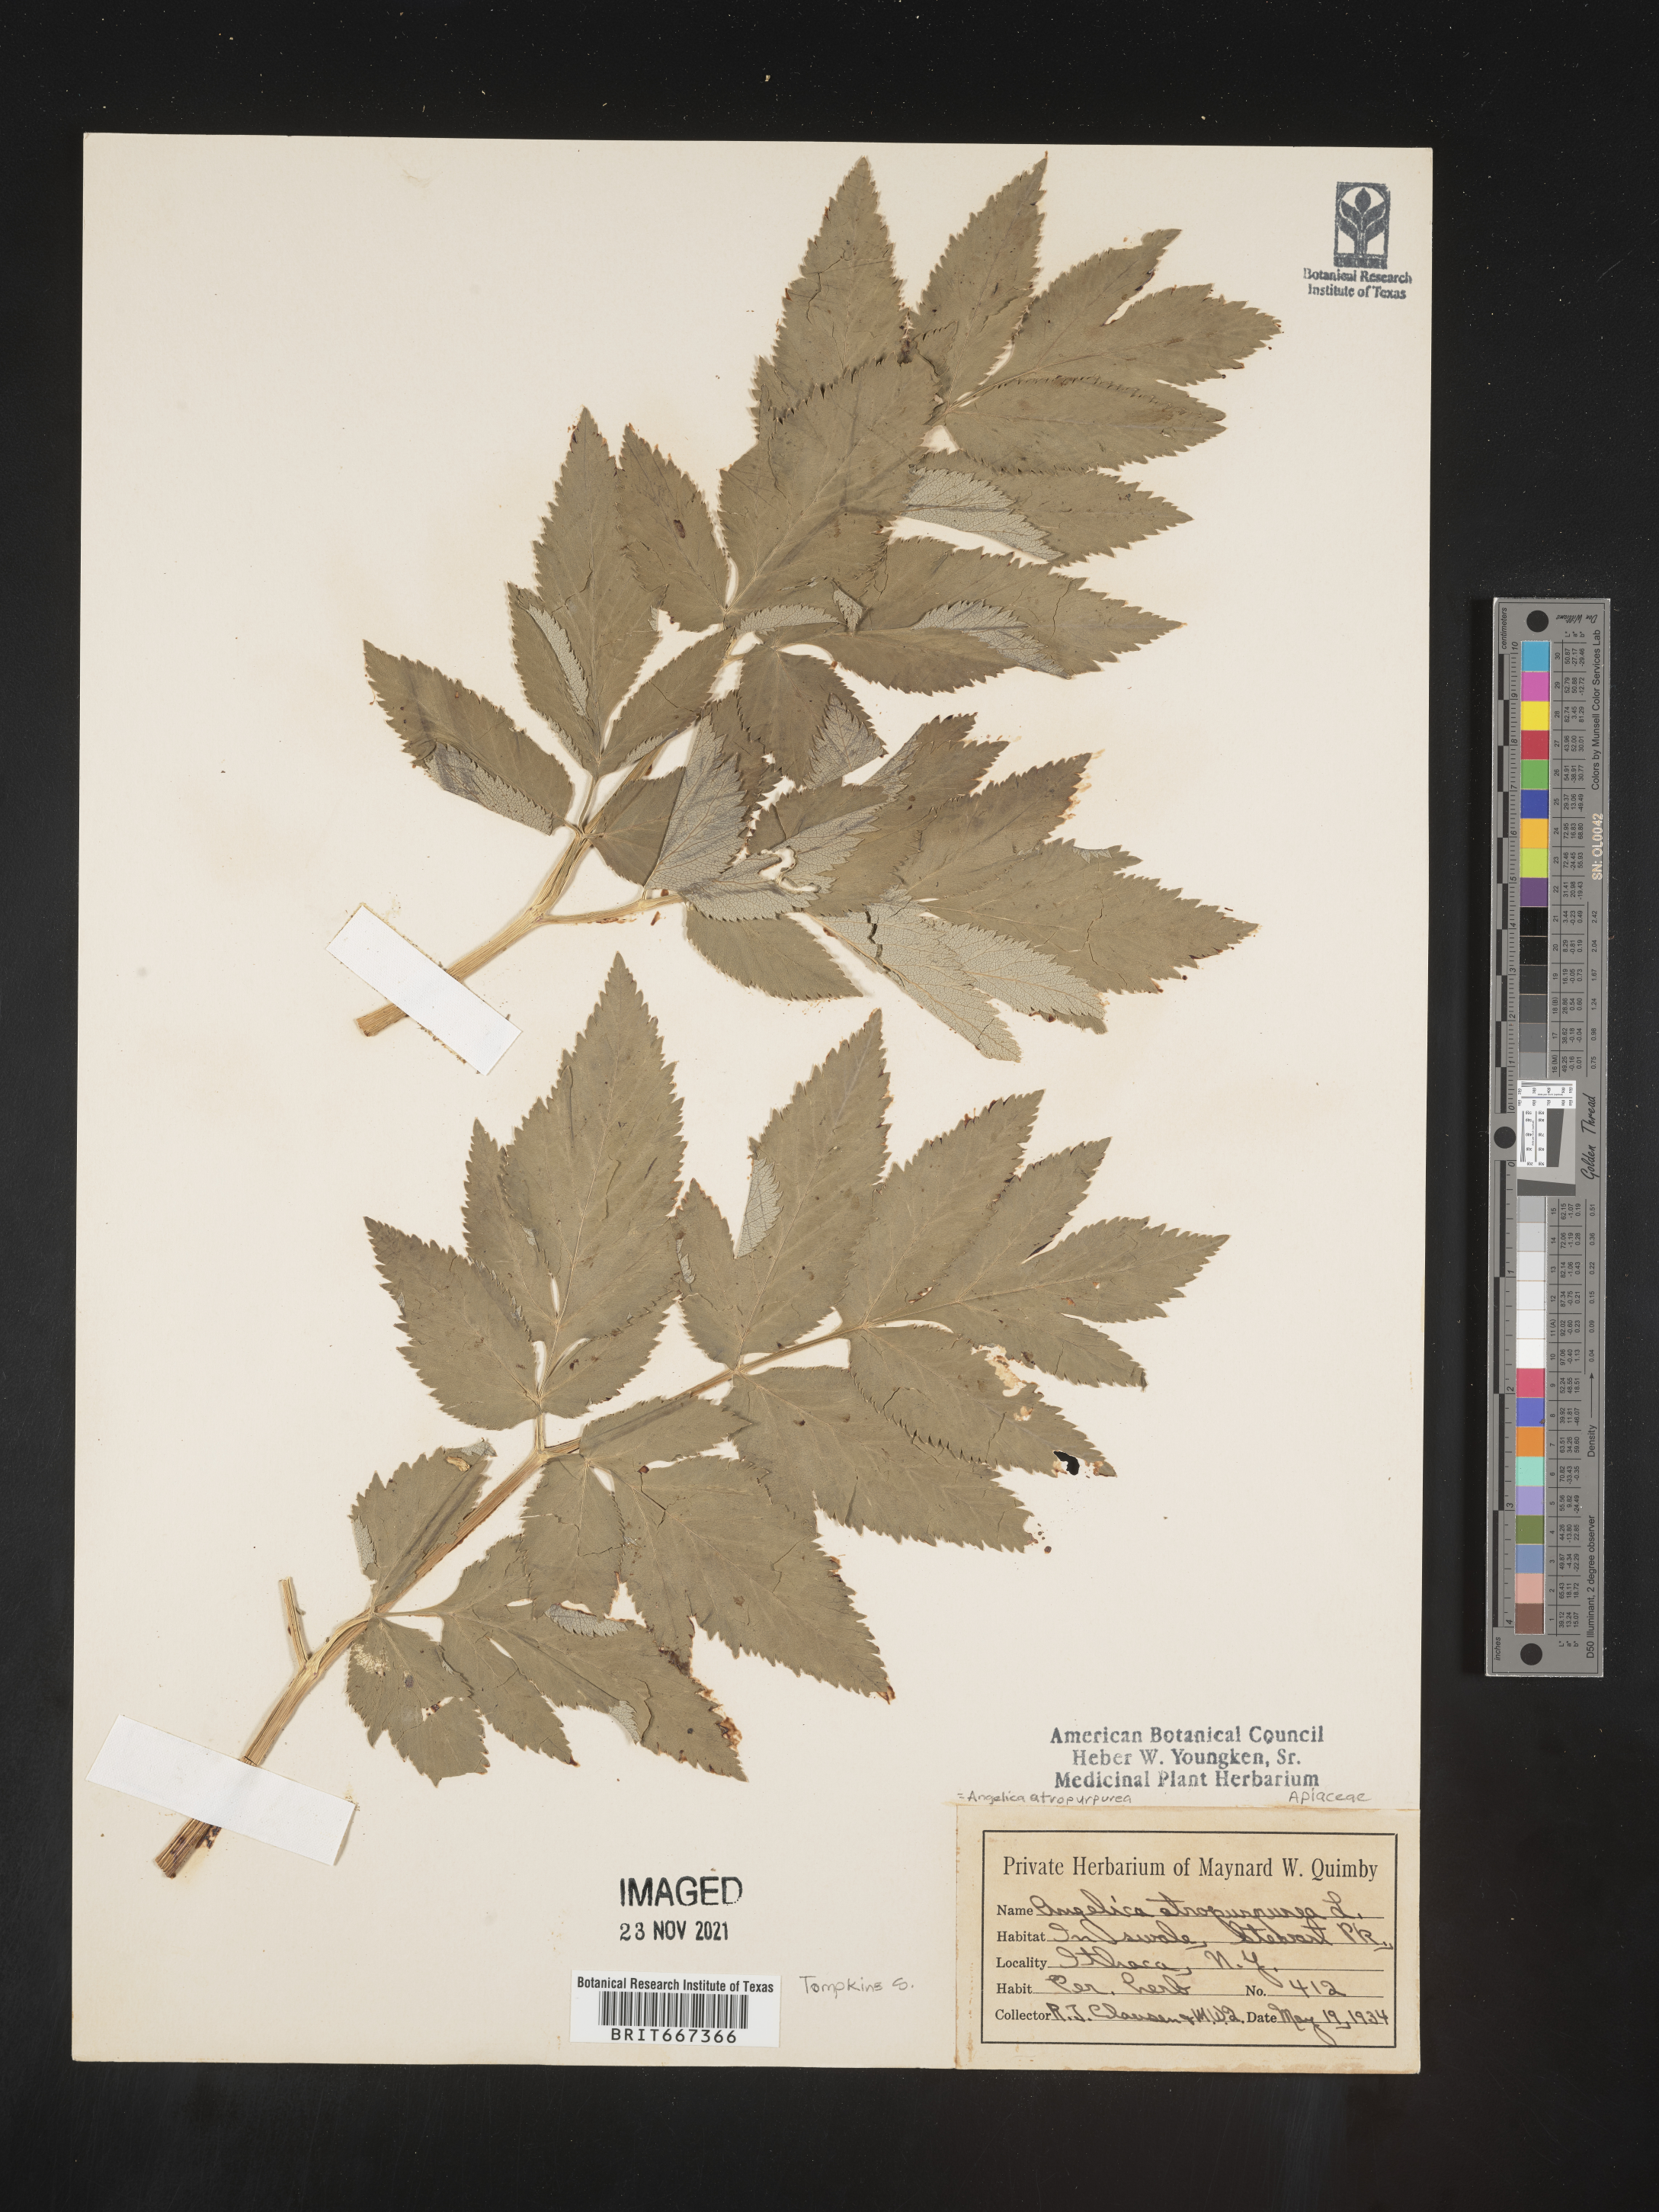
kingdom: Plantae
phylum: Tracheophyta
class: Magnoliopsida
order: Apiales
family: Apiaceae
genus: Angelica
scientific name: Angelica atropurpurea
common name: Great angelica
